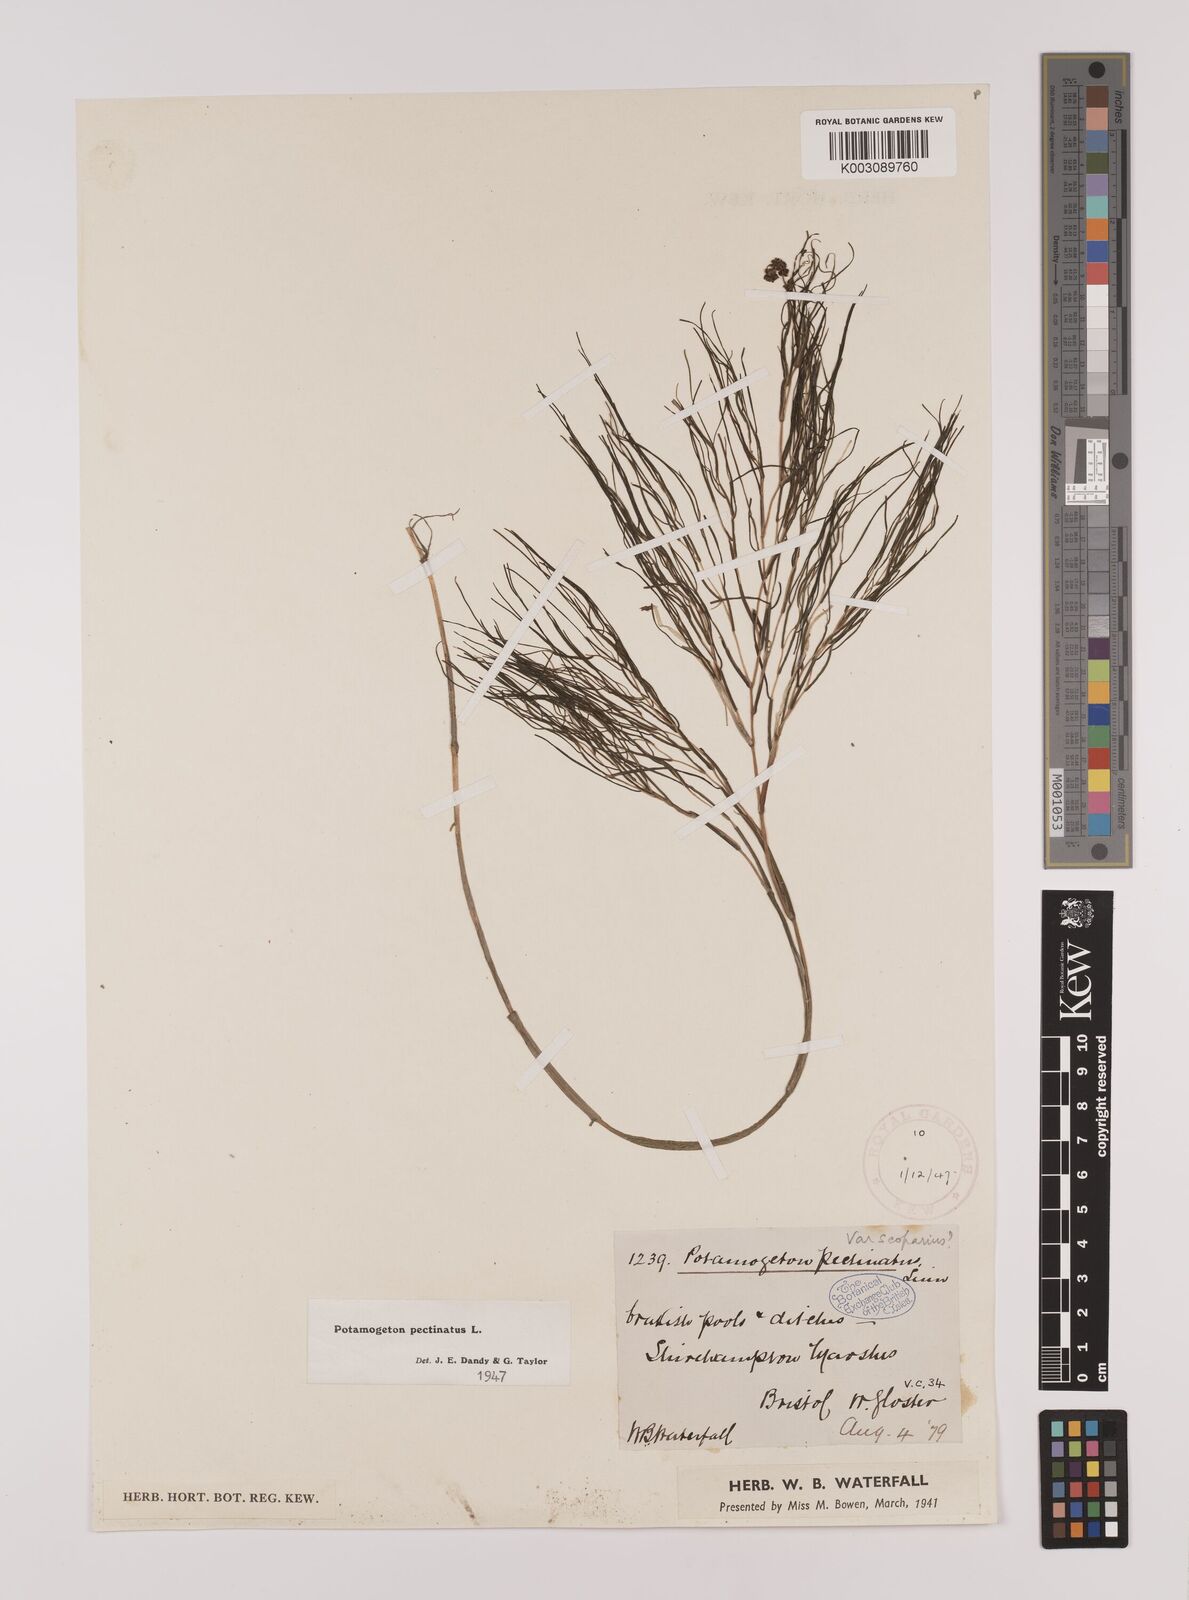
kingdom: Plantae
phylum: Tracheophyta
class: Liliopsida
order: Alismatales
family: Potamogetonaceae
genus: Stuckenia
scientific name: Stuckenia pectinata
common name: Sago pondweed
